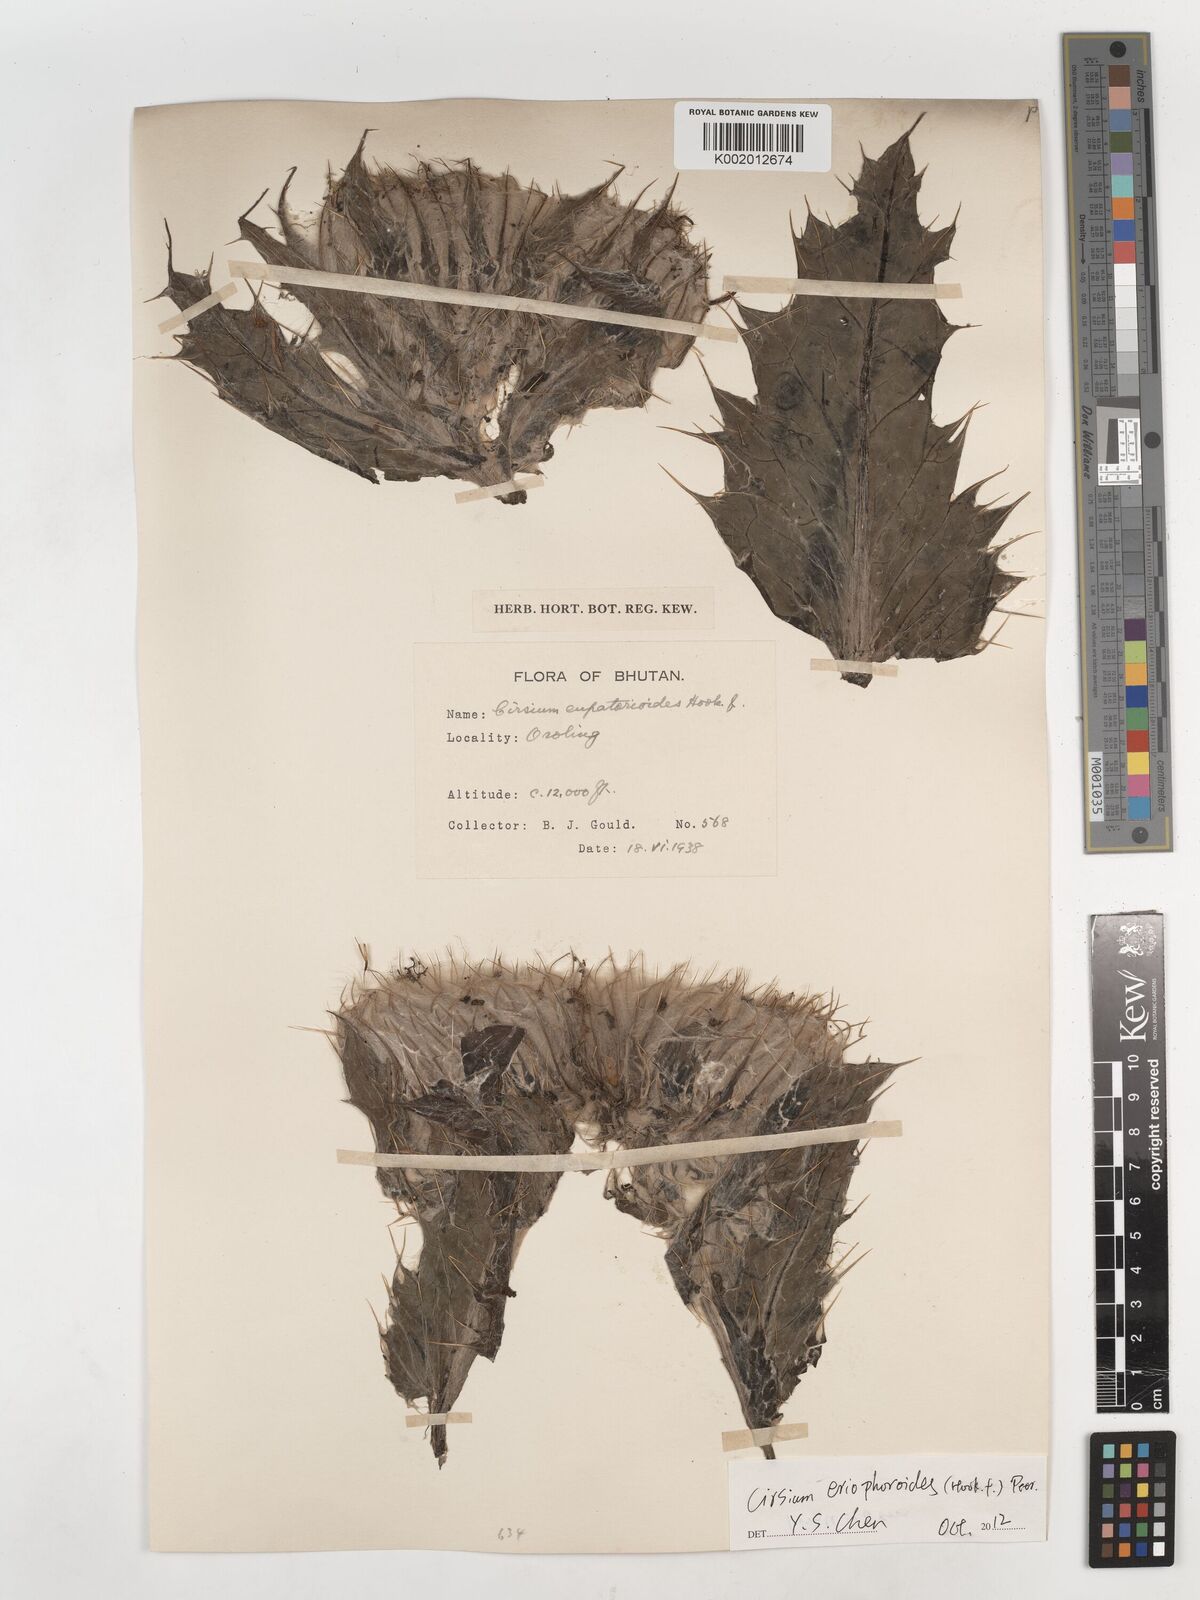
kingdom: Plantae
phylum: Tracheophyta
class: Magnoliopsida
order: Asterales
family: Asteraceae
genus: Cirsium
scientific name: Cirsium
